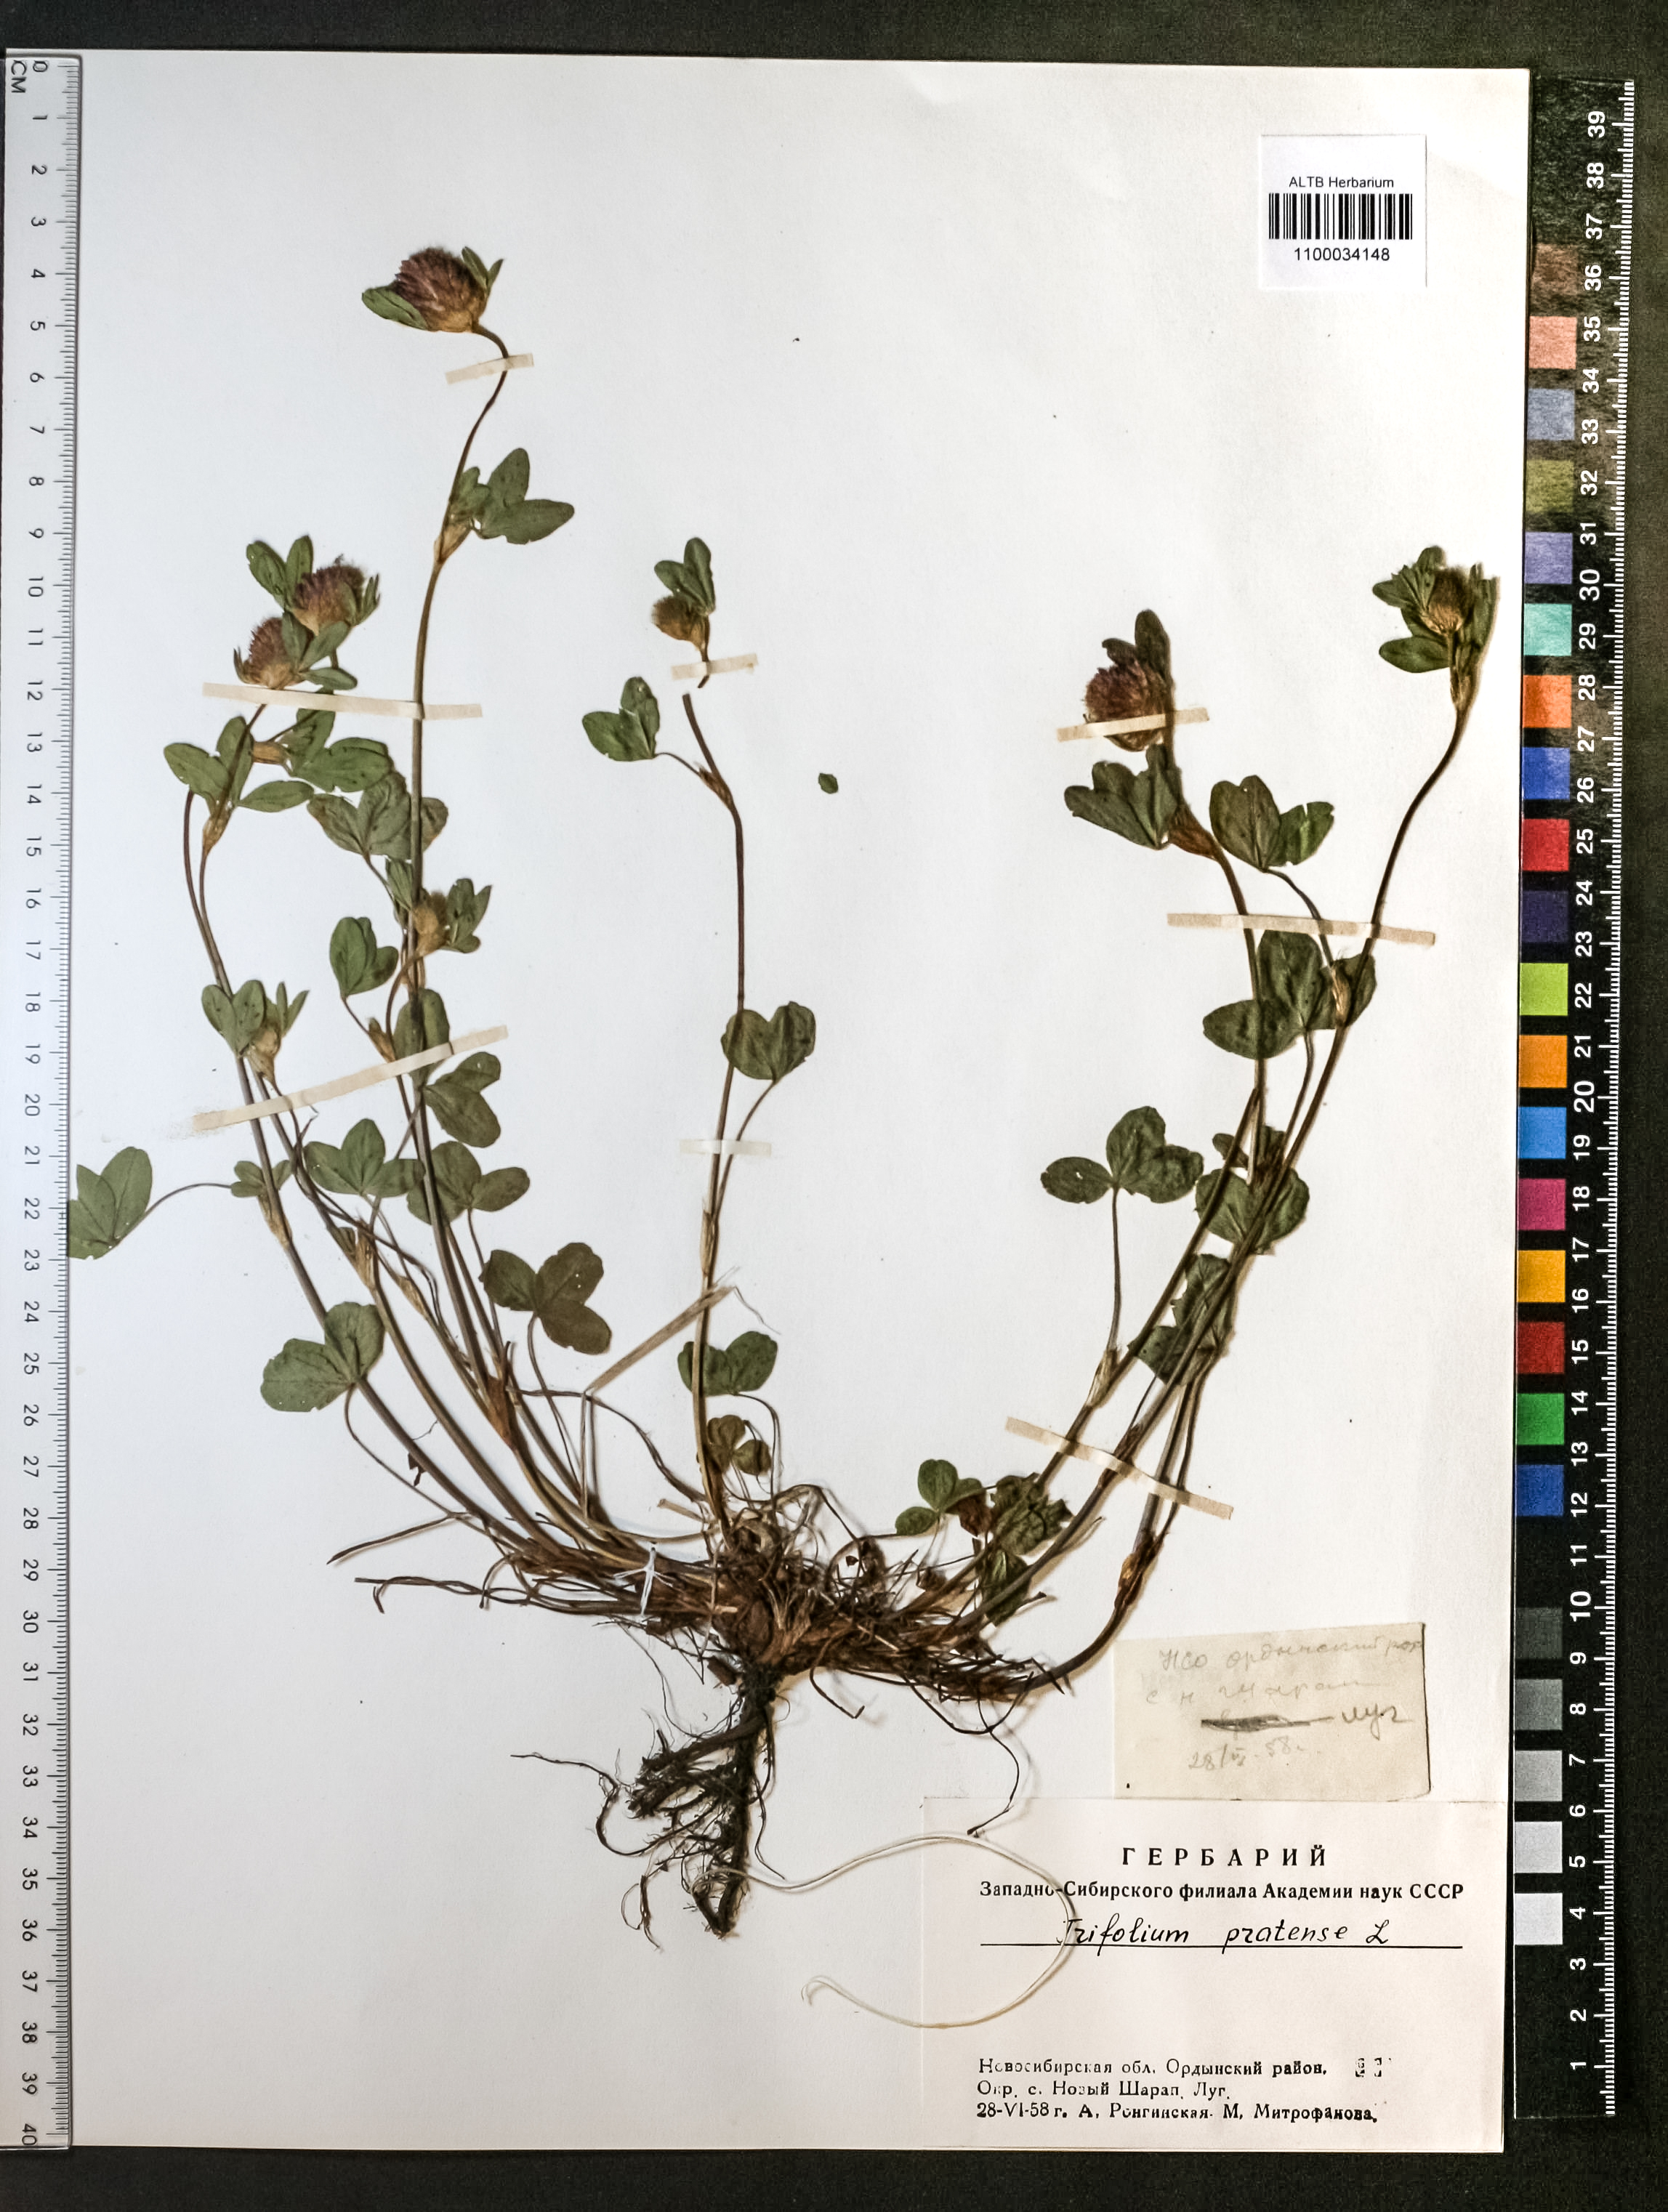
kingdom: Plantae
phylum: Tracheophyta
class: Magnoliopsida
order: Fabales
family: Fabaceae
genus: Trifolium
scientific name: Trifolium pratense
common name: Red clover
